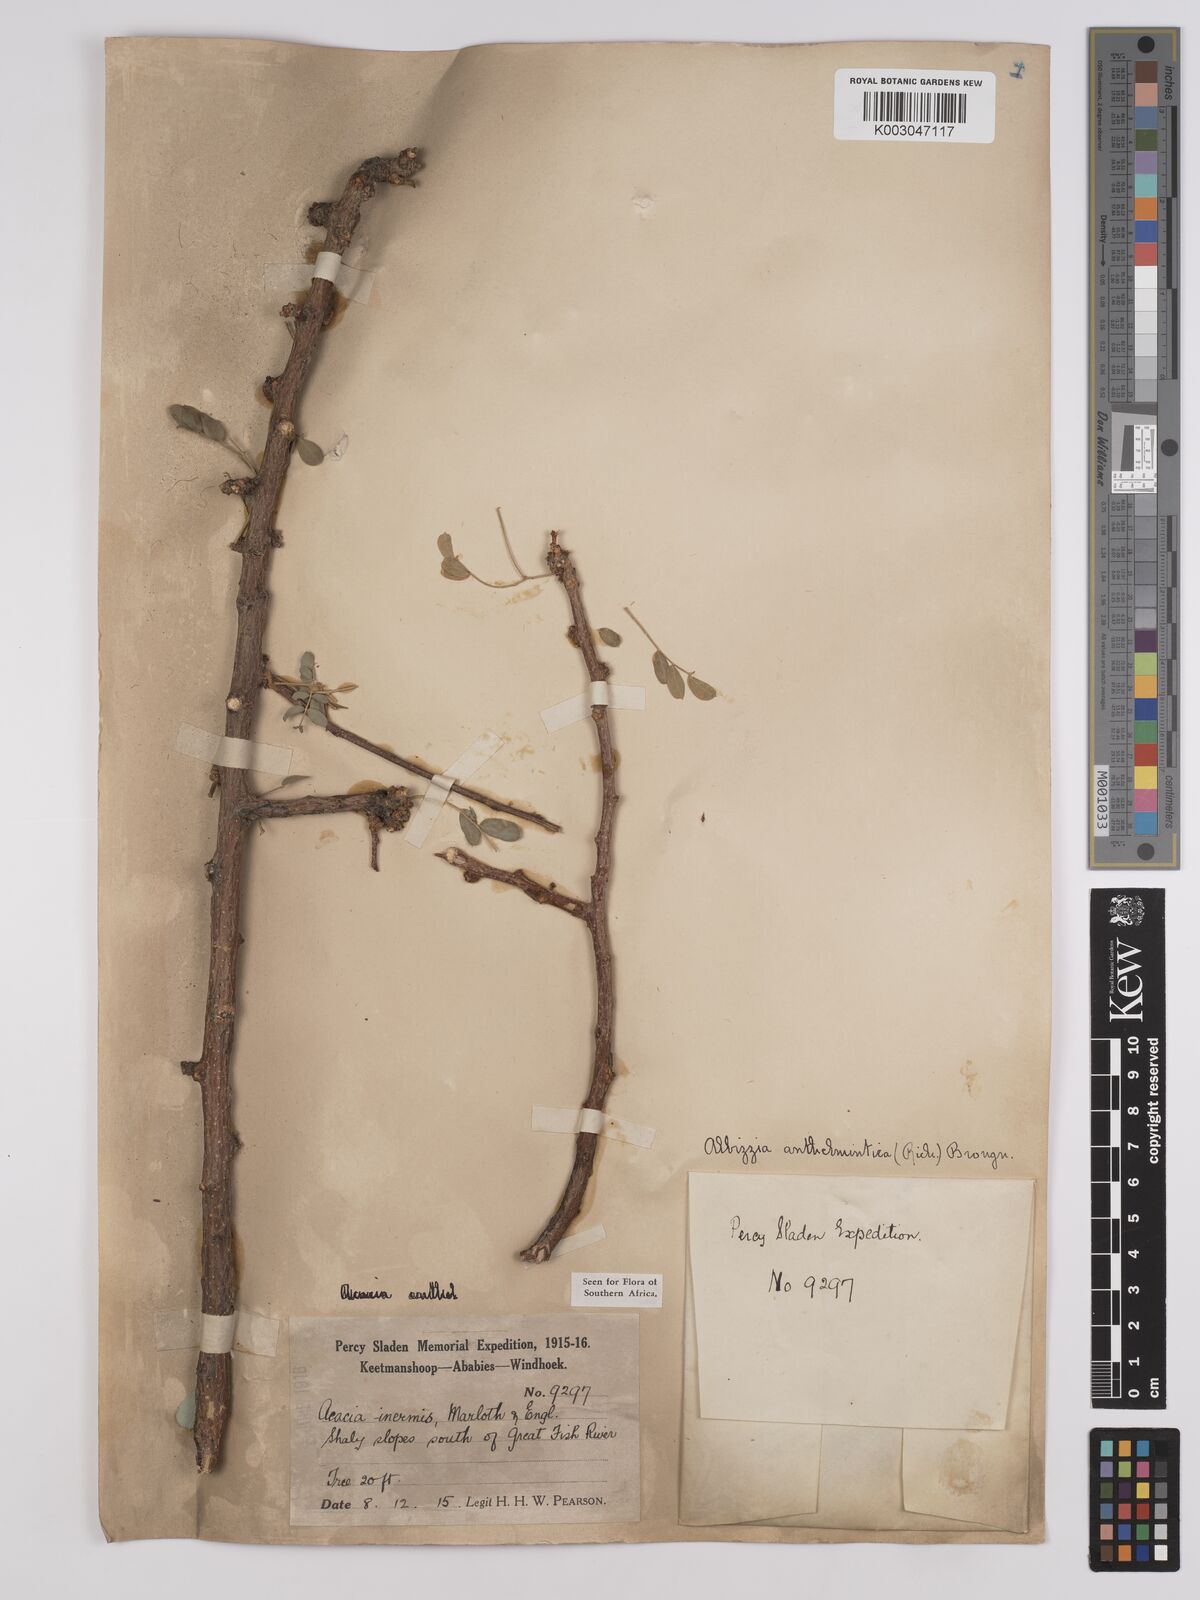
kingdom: Plantae
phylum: Tracheophyta
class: Magnoliopsida
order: Fabales
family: Fabaceae
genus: Albizia
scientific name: Albizia anthelmintica
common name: Worm-bark false-thorn
